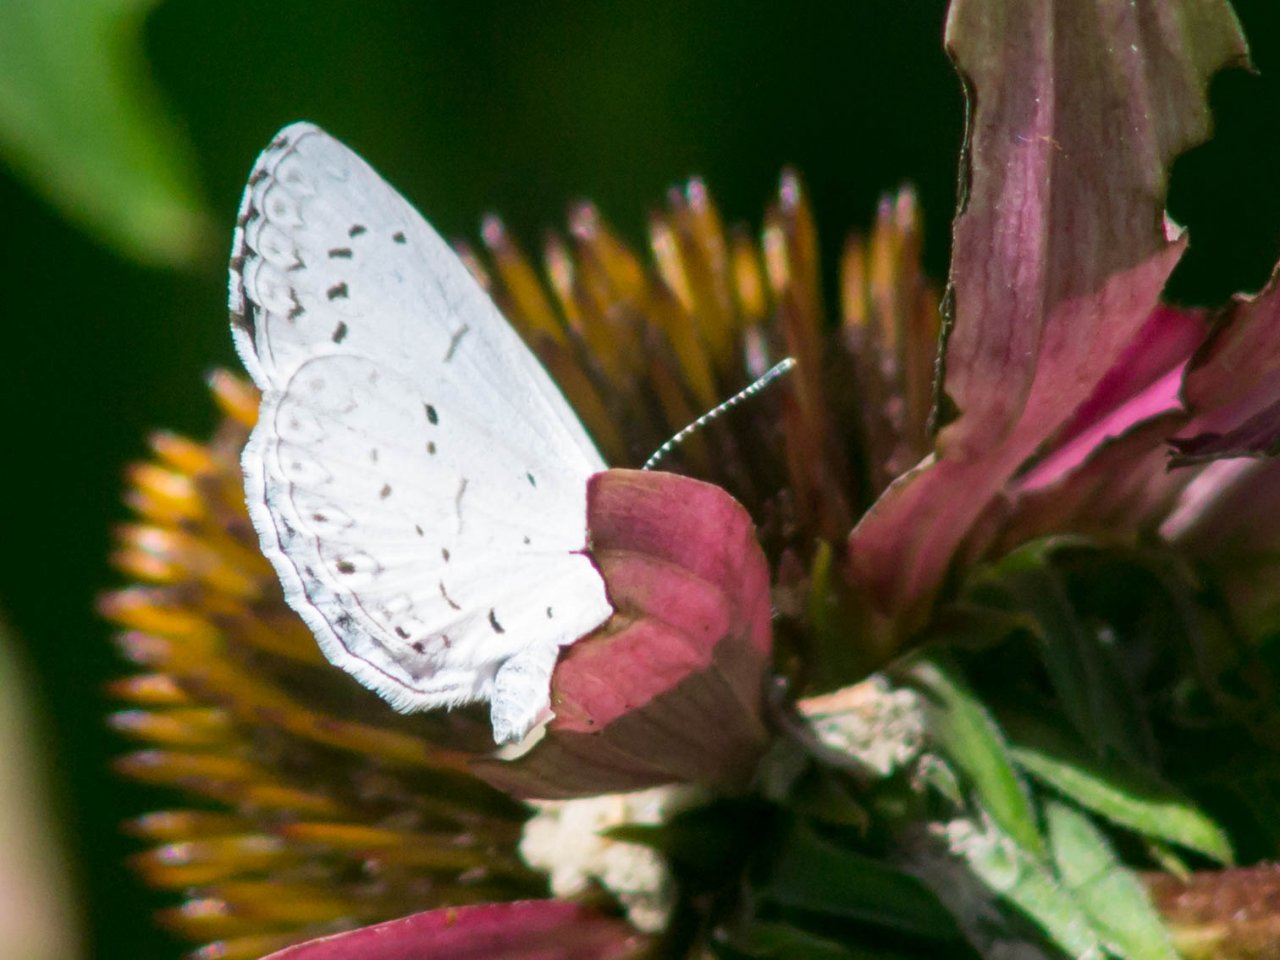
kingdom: Animalia
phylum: Arthropoda
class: Insecta
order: Lepidoptera
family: Lycaenidae
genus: Cyaniris
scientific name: Cyaniris neglecta
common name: Summer Azure
